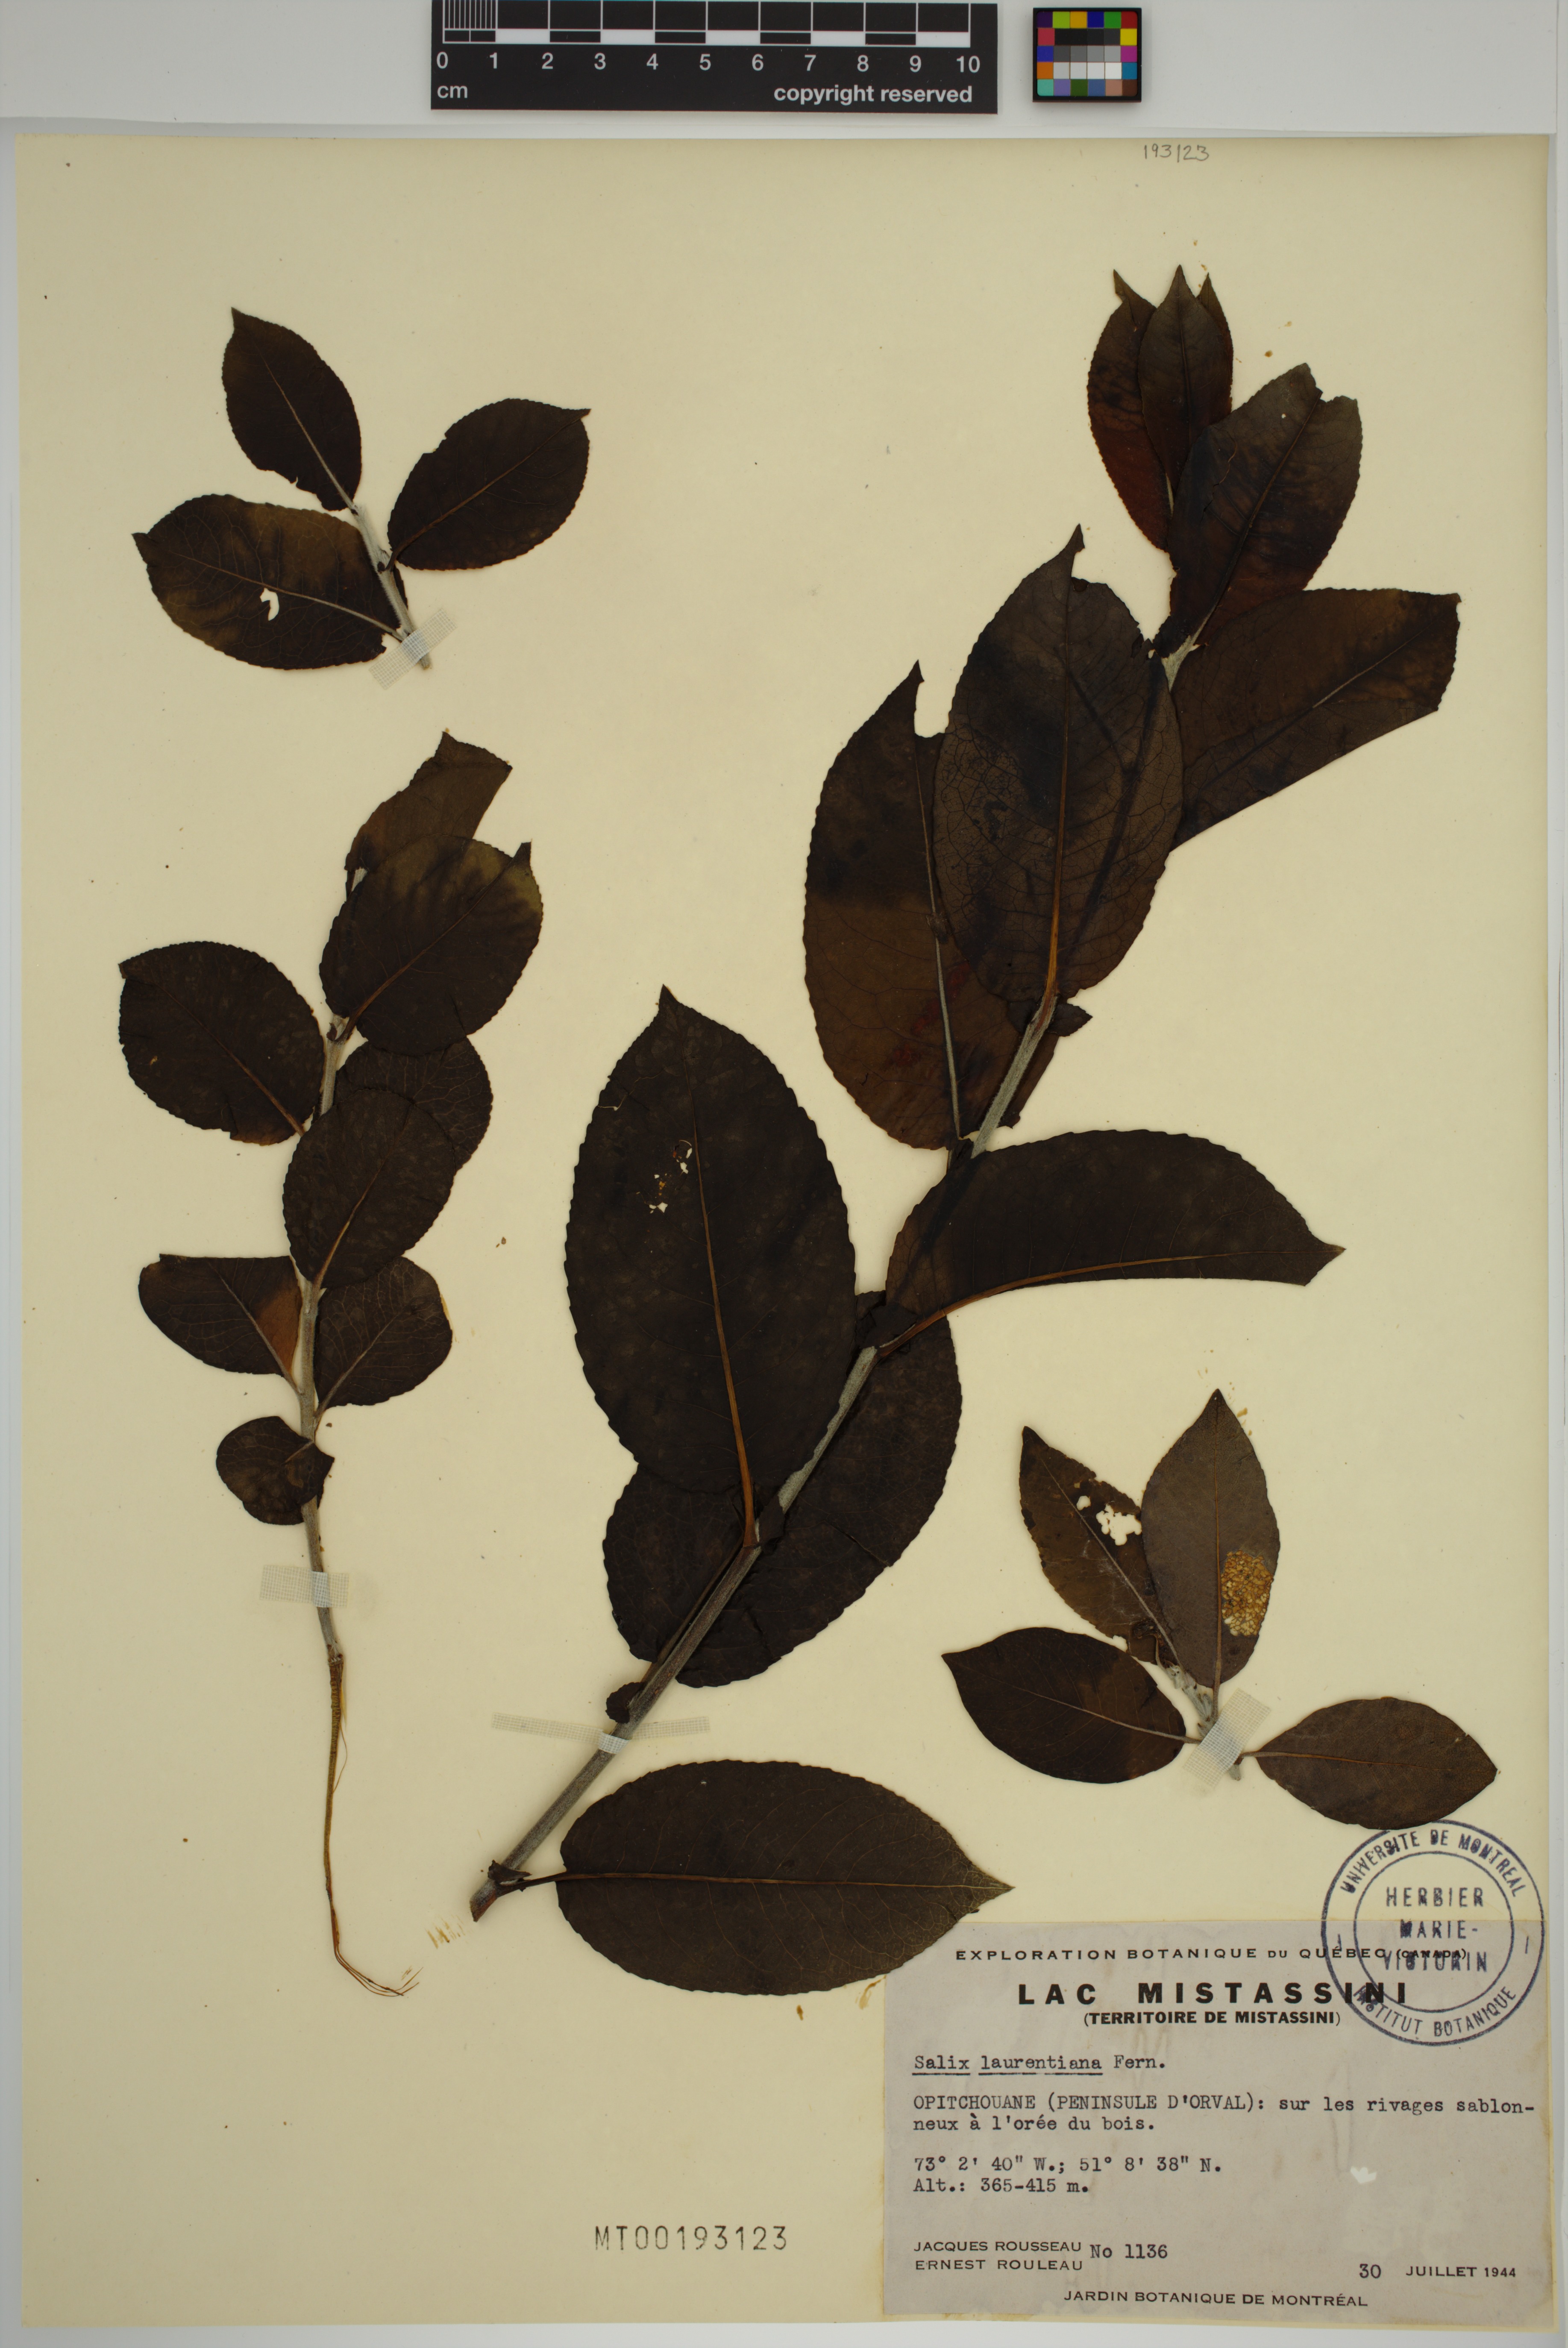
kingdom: Plantae
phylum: Tracheophyta
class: Magnoliopsida
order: Malpighiales
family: Salicaceae
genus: Salix
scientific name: Salix laurentiana
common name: Gulf of st. lawrence willow
